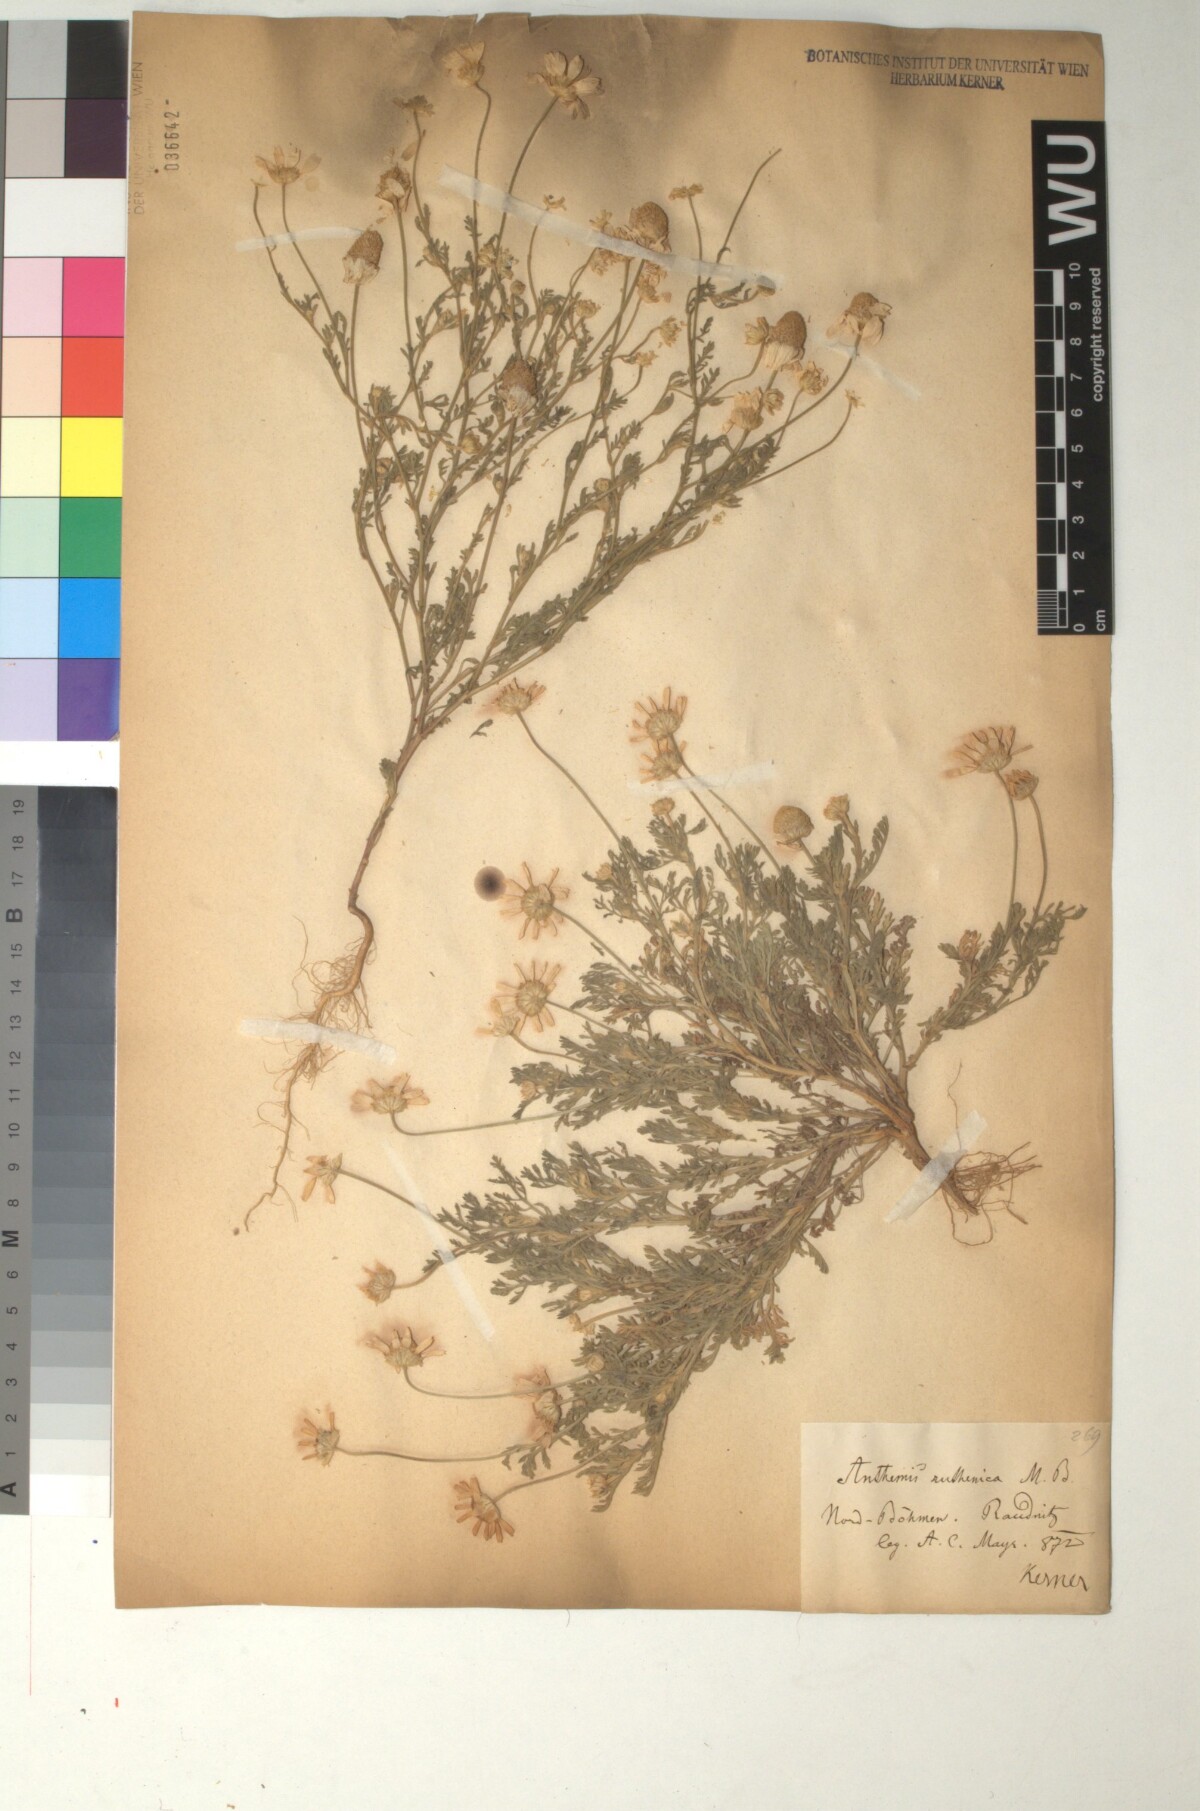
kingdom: Plantae
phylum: Tracheophyta
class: Magnoliopsida
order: Asterales
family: Asteraceae
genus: Anthemis
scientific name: Anthemis ruthenica
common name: Eastern chamomile
